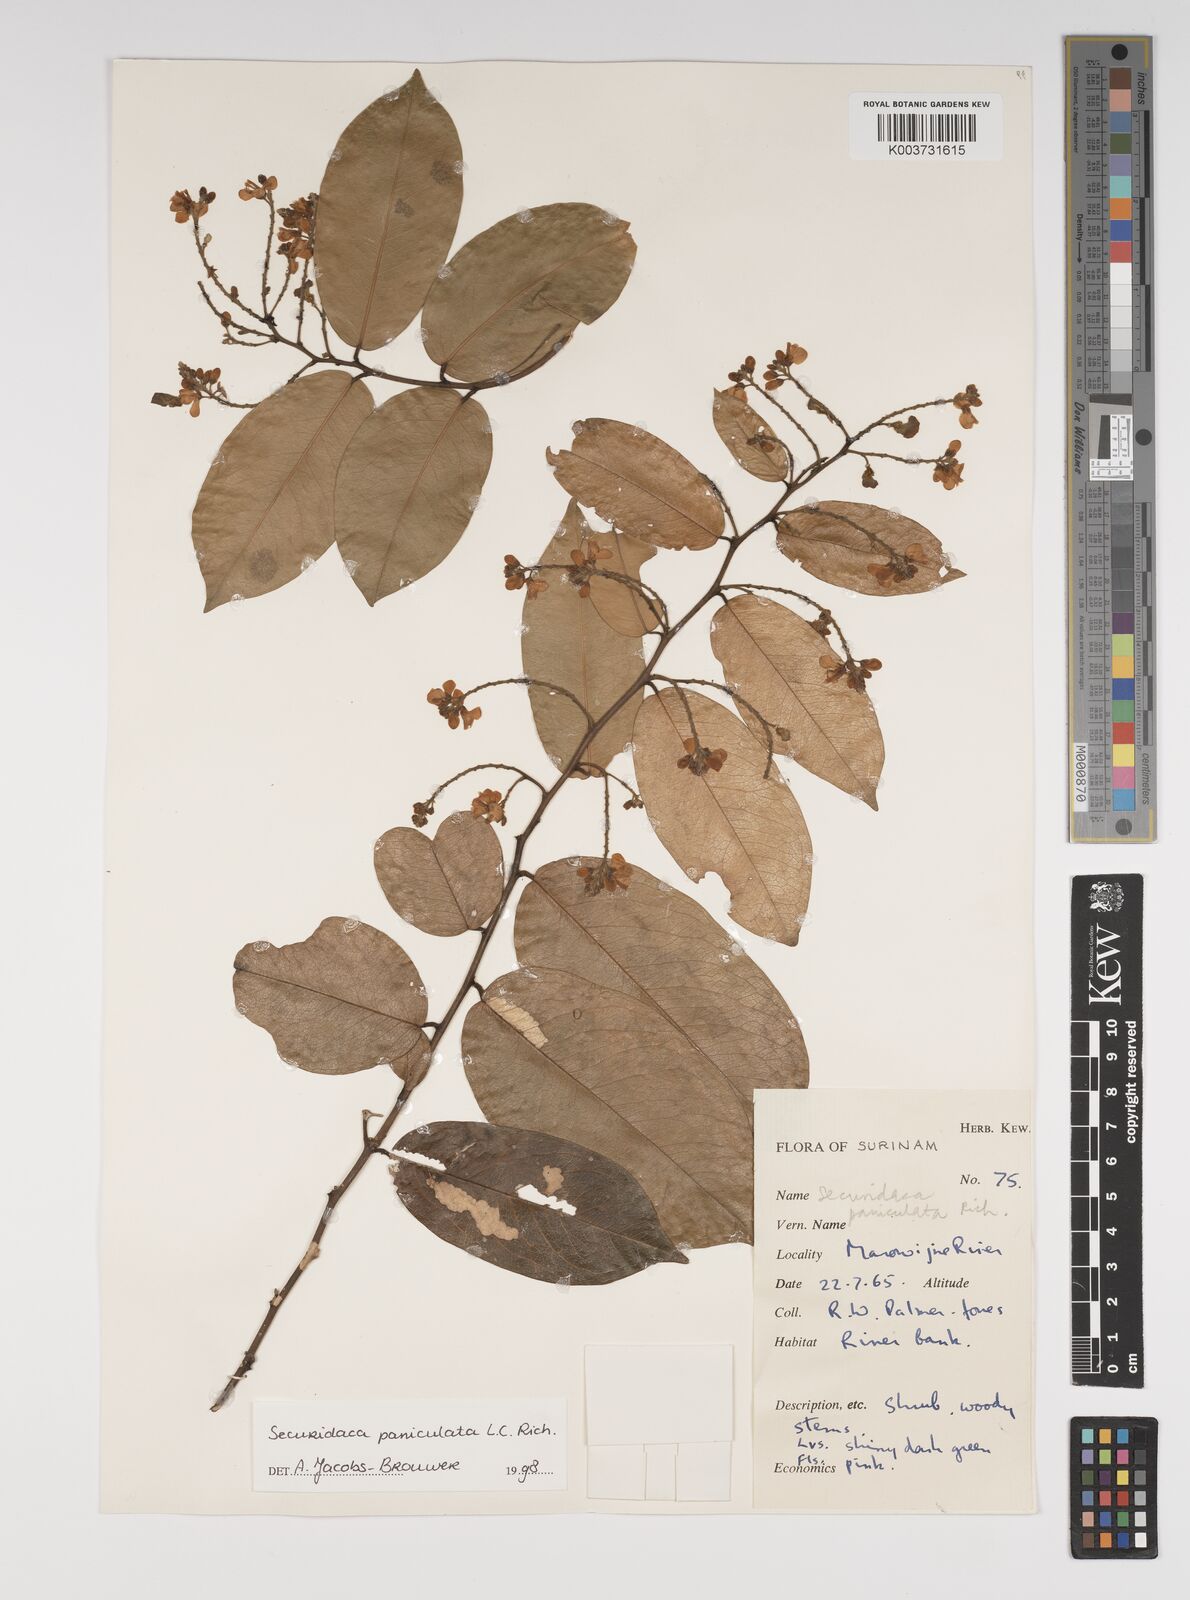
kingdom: Plantae
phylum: Tracheophyta
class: Magnoliopsida
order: Fabales
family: Polygalaceae
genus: Securidaca
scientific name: Securidaca paniculata
